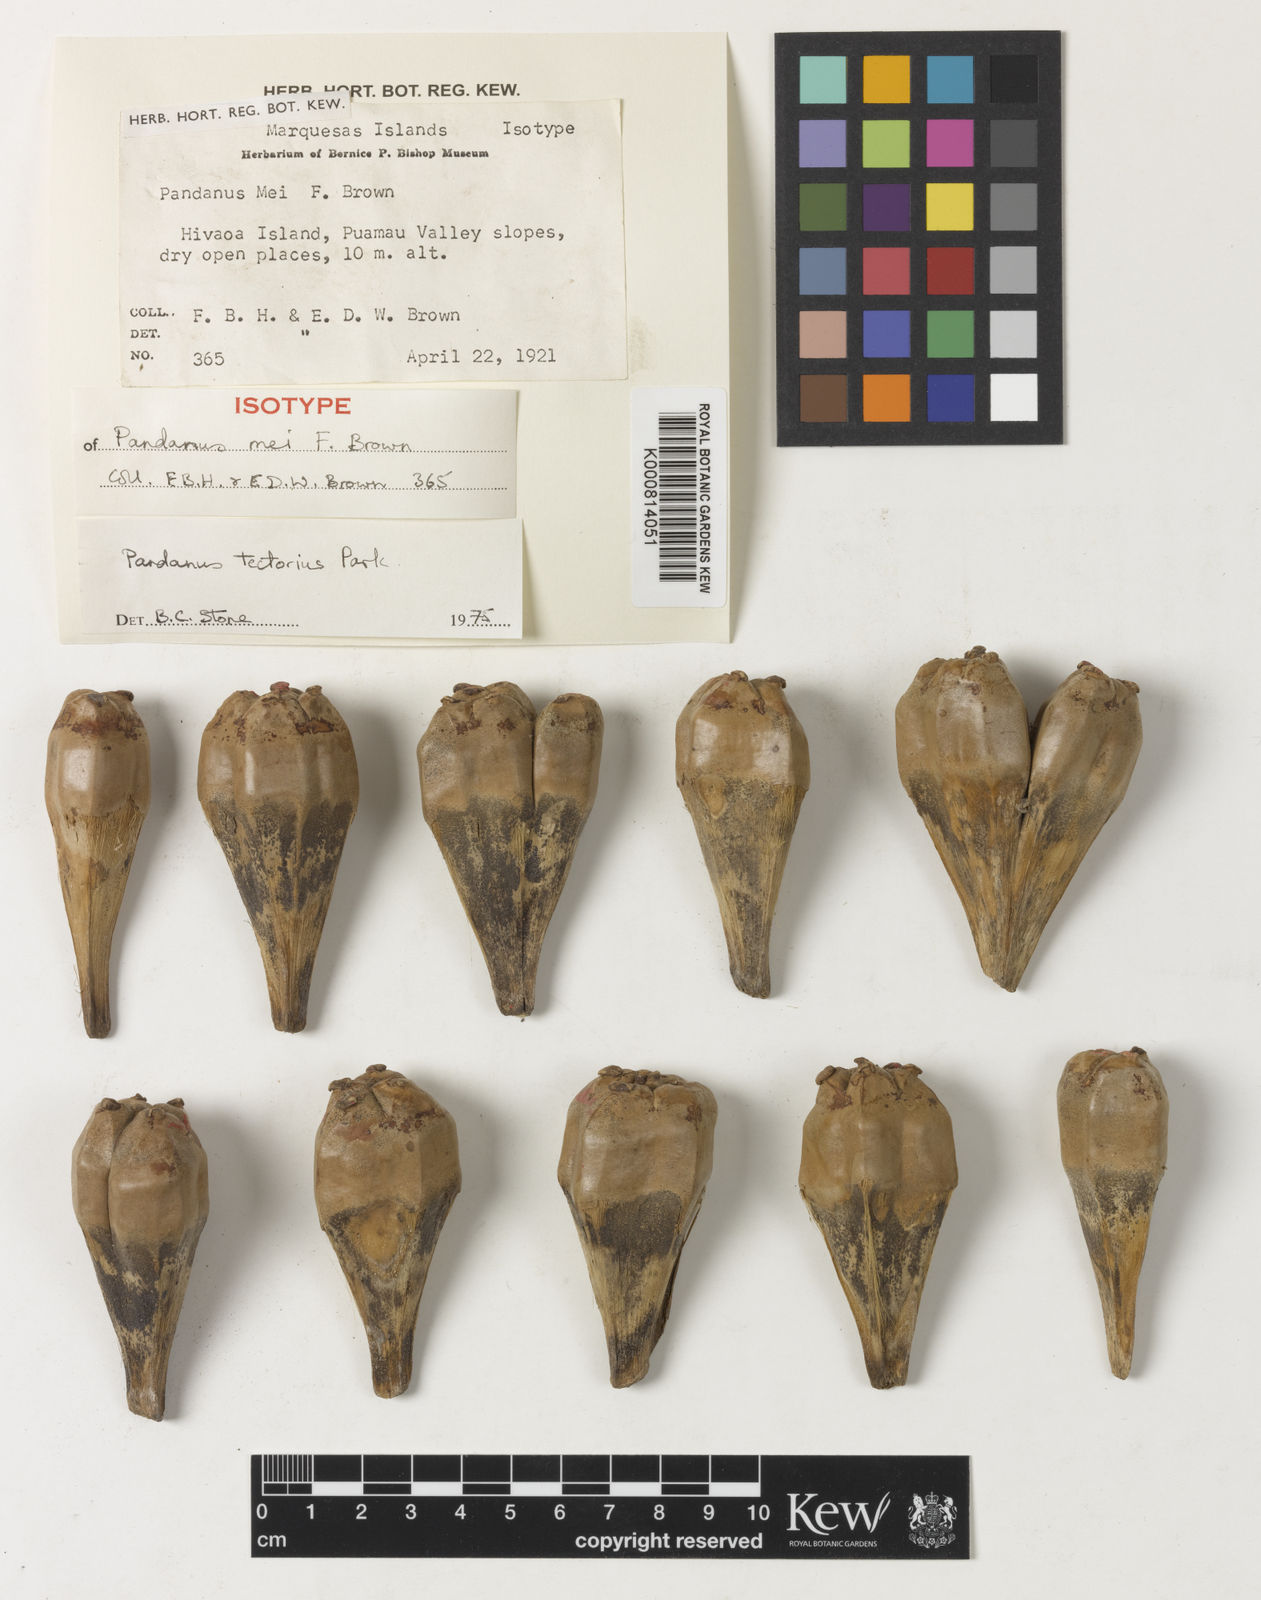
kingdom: Plantae
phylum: Tracheophyta
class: Liliopsida
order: Pandanales
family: Pandanaceae
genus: Pandanus
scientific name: Pandanus
